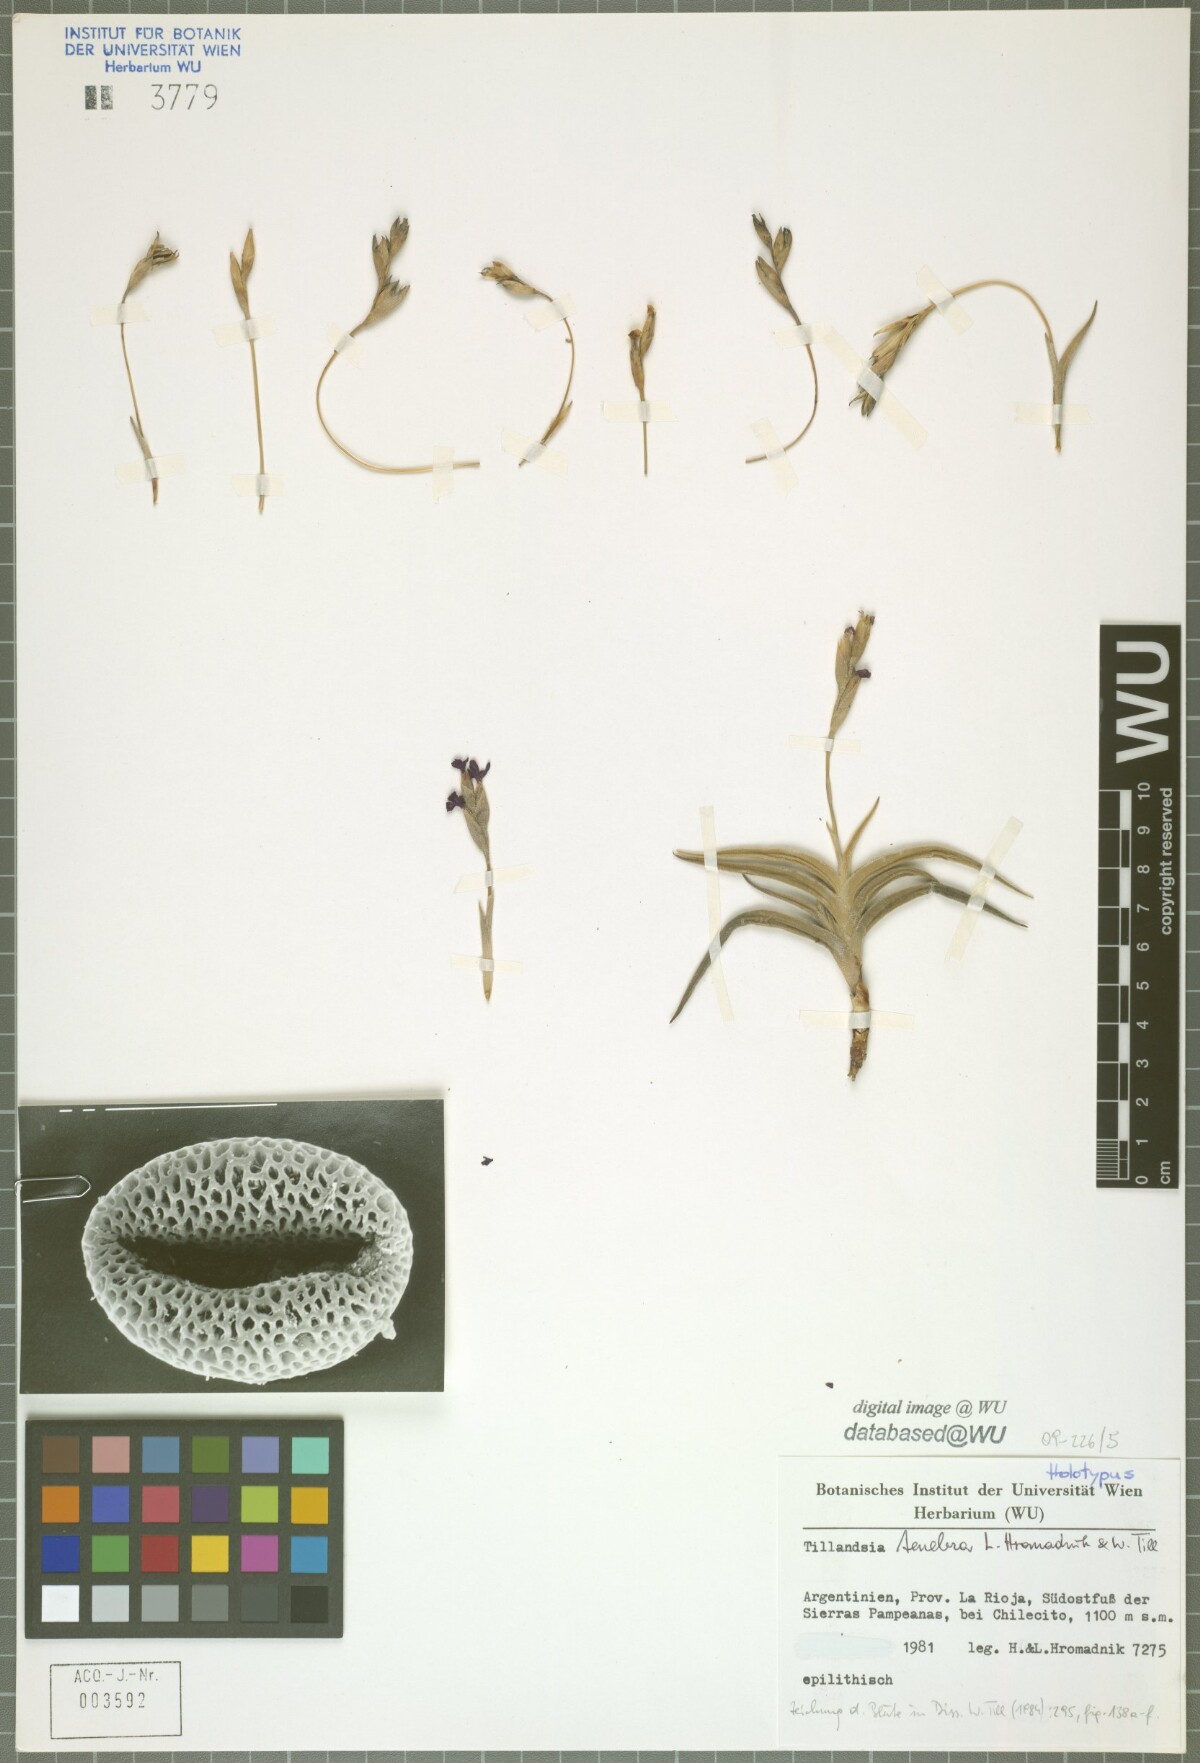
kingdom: Plantae
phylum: Tracheophyta
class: Liliopsida
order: Poales
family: Bromeliaceae
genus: Tillandsia
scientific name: Tillandsia tenebra
